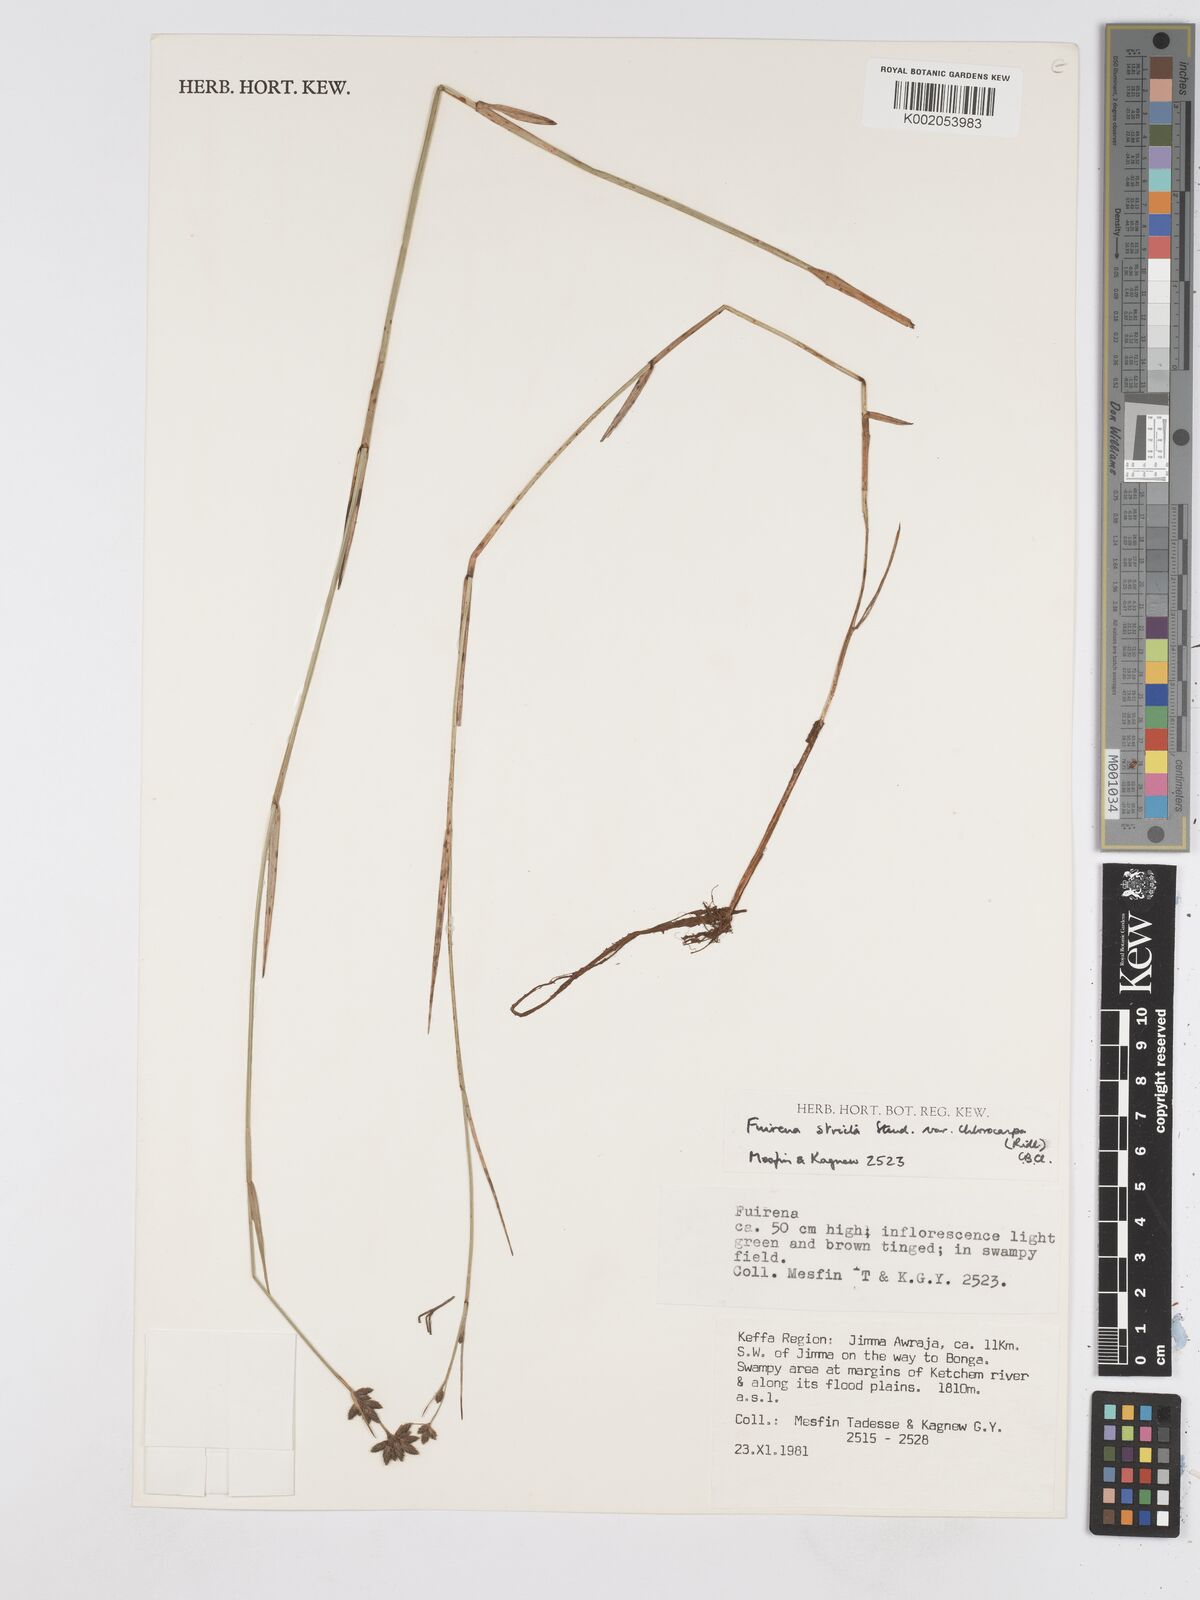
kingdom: Plantae
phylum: Tracheophyta
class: Liliopsida
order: Poales
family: Cyperaceae
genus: Fuirena
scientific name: Fuirena stricta
